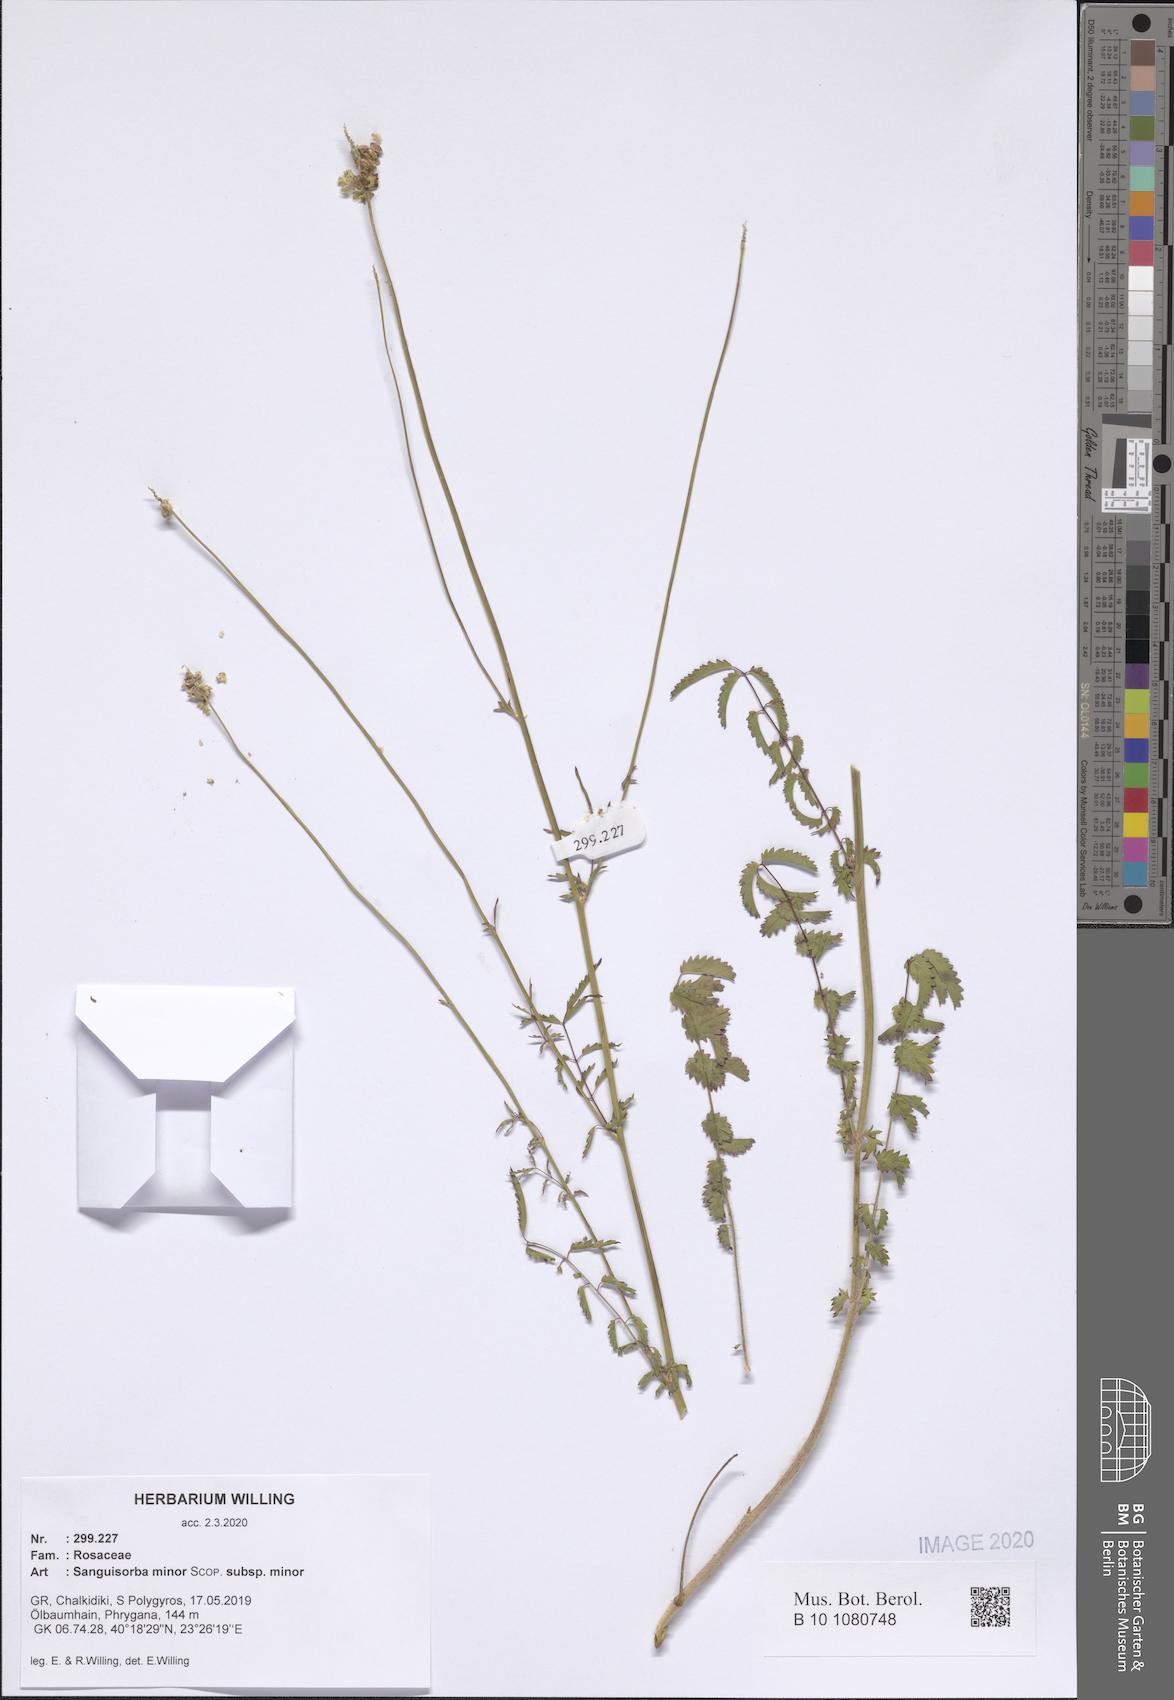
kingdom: Plantae
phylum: Tracheophyta
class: Magnoliopsida
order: Rosales
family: Rosaceae
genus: Poterium
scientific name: Poterium sanguisorba
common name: Salad burnet
